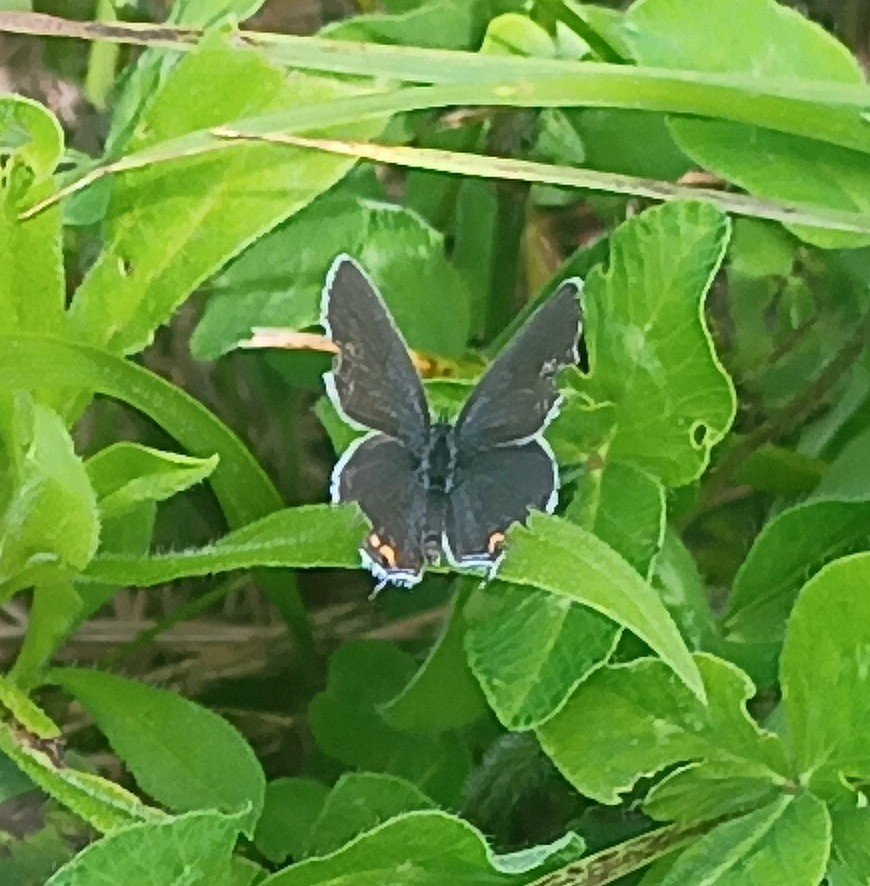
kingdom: Animalia
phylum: Arthropoda
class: Insecta
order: Lepidoptera
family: Lycaenidae
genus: Elkalyce
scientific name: Elkalyce comyntas
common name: Eastern Tailed-Blue
